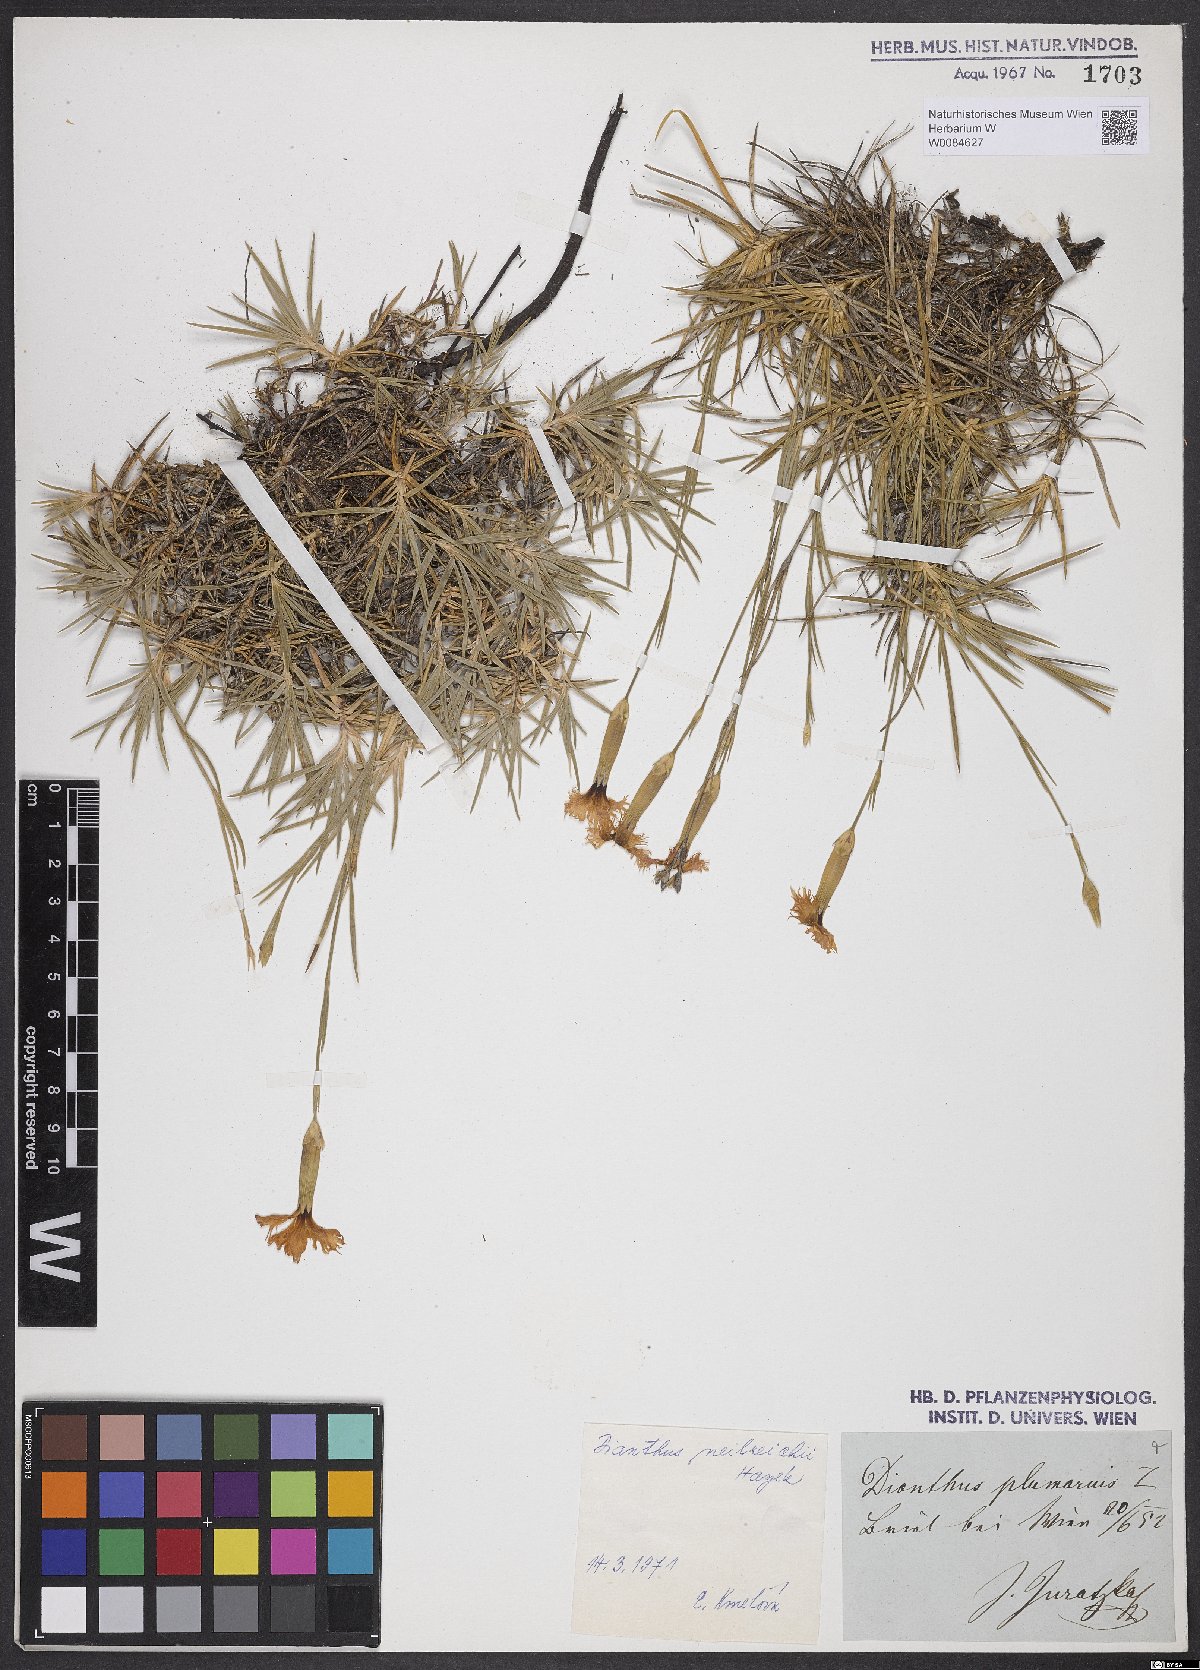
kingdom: Plantae
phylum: Tracheophyta
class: Magnoliopsida
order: Caryophyllales
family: Caryophyllaceae
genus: Dianthus
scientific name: Dianthus plumarius
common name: Pink
